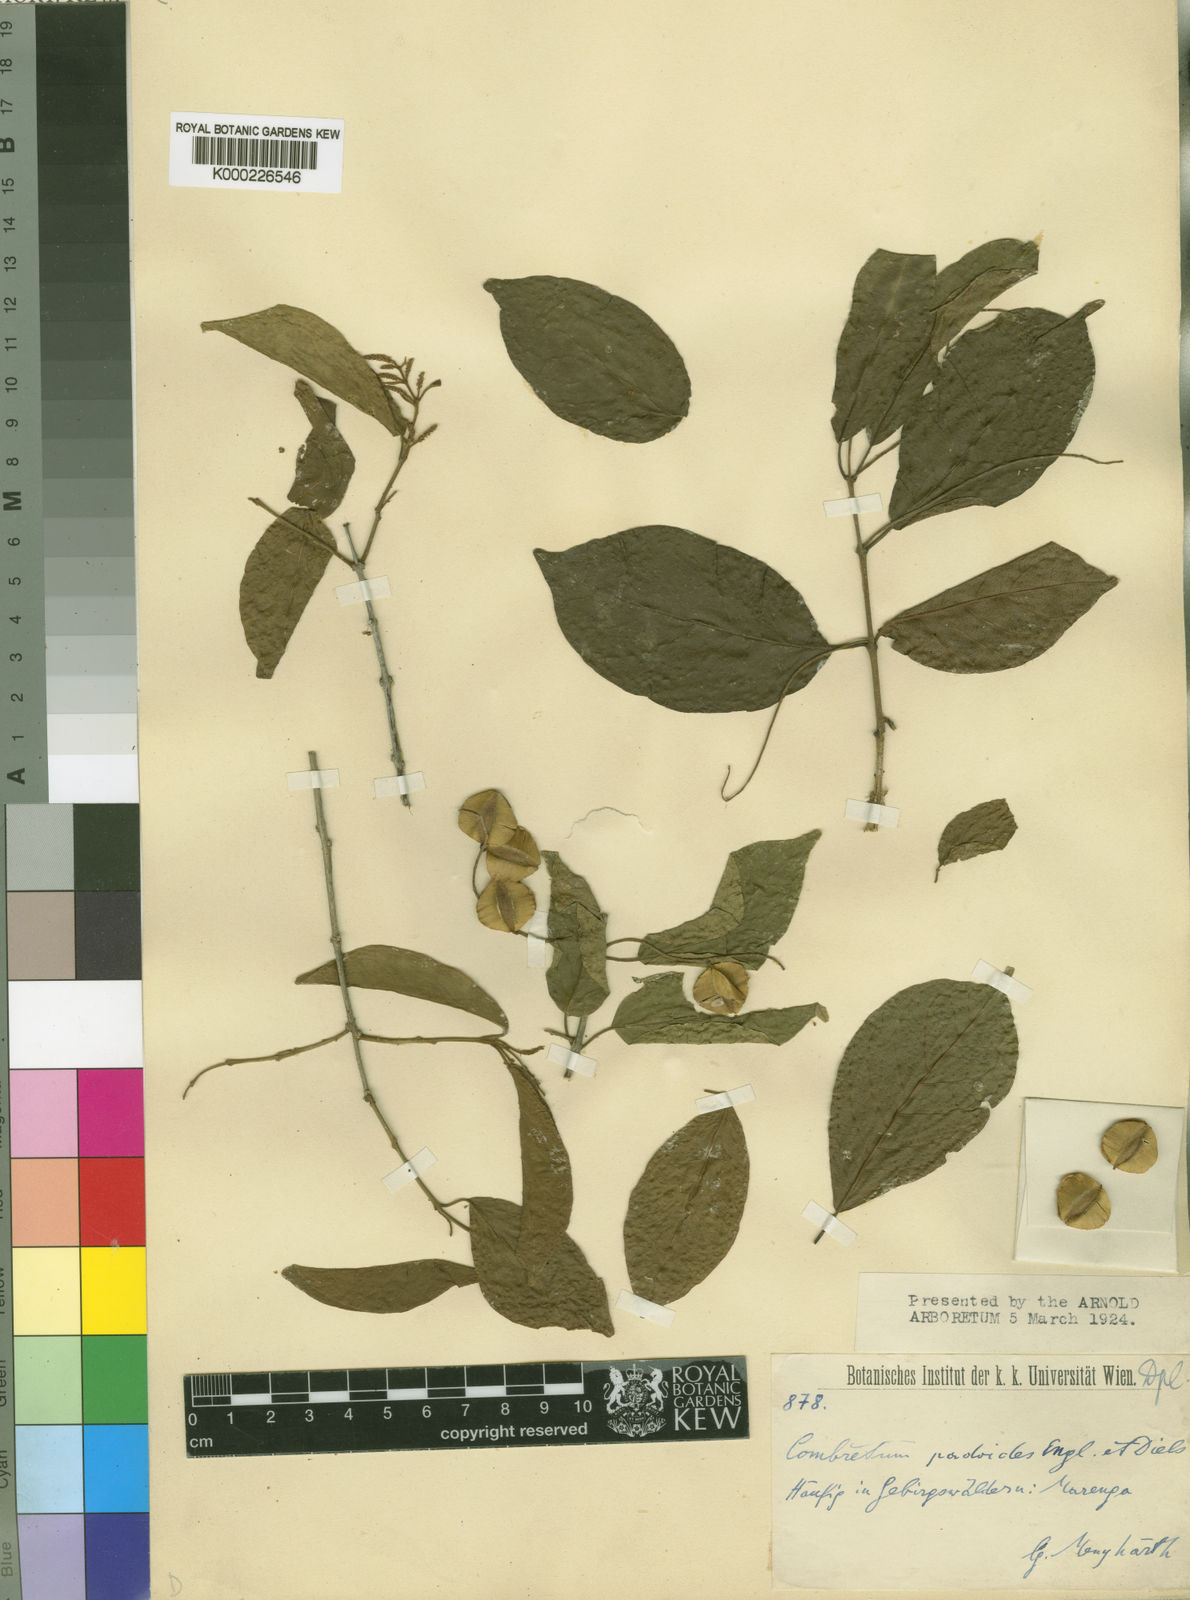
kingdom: Plantae
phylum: Tracheophyta
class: Magnoliopsida
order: Myrtales
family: Combretaceae
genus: Combretum
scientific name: Combretum padoides
